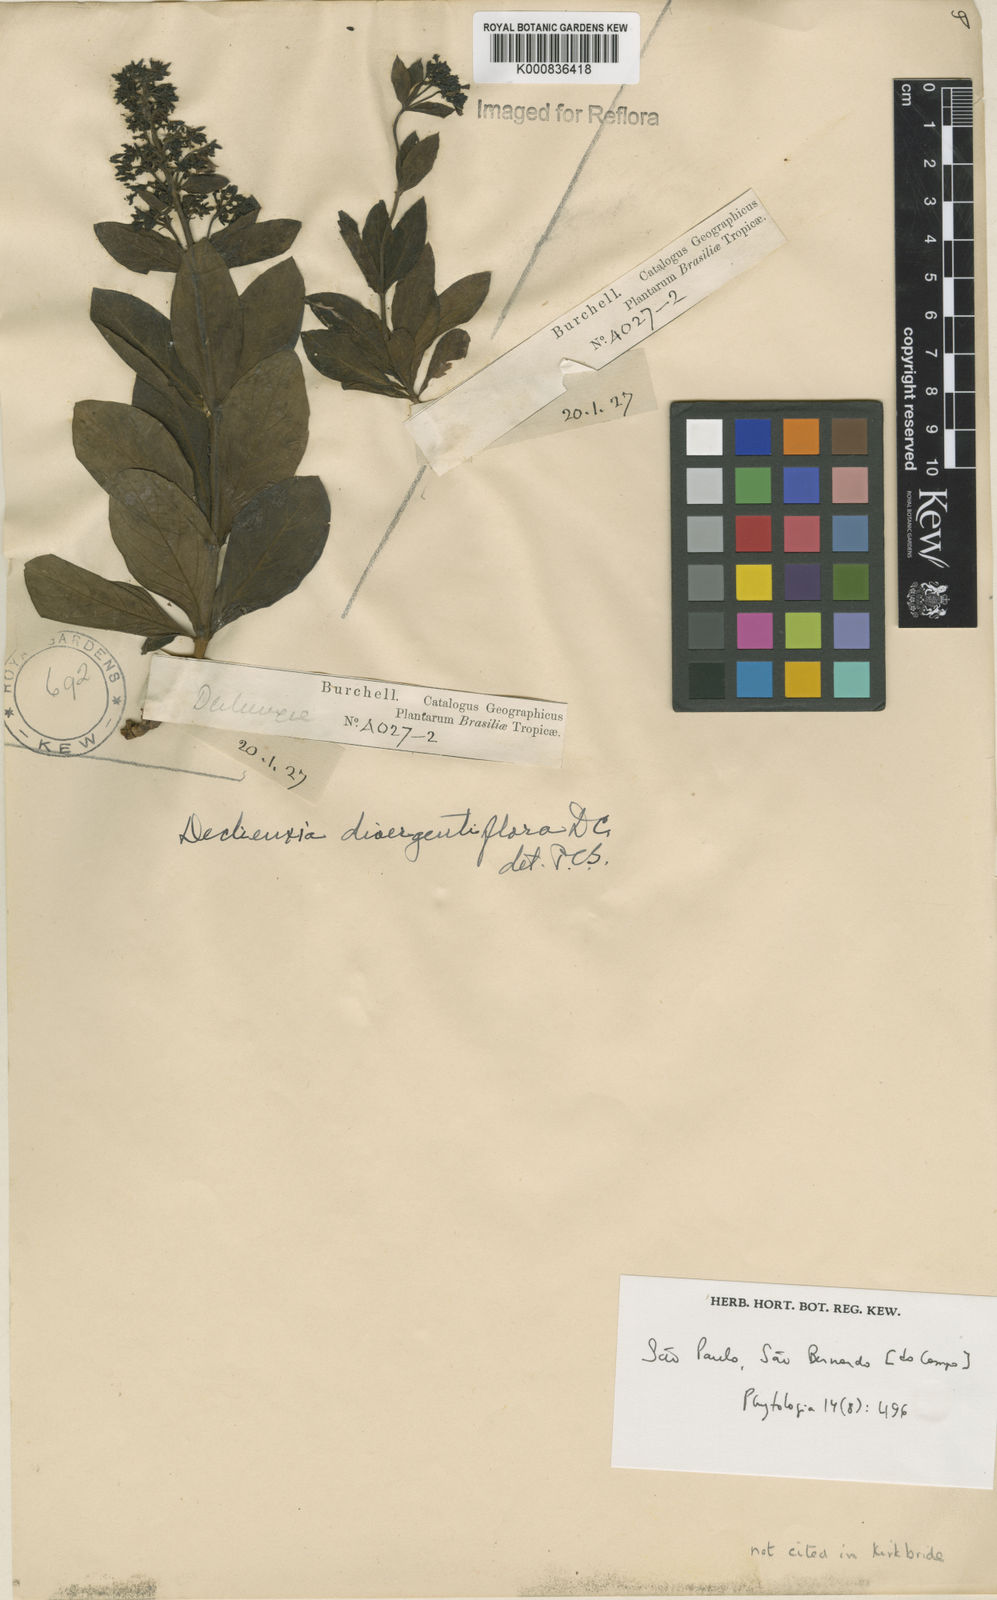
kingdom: Plantae
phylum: Tracheophyta
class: Magnoliopsida
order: Gentianales
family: Rubiaceae
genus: Declieuxia
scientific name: Declieuxia
